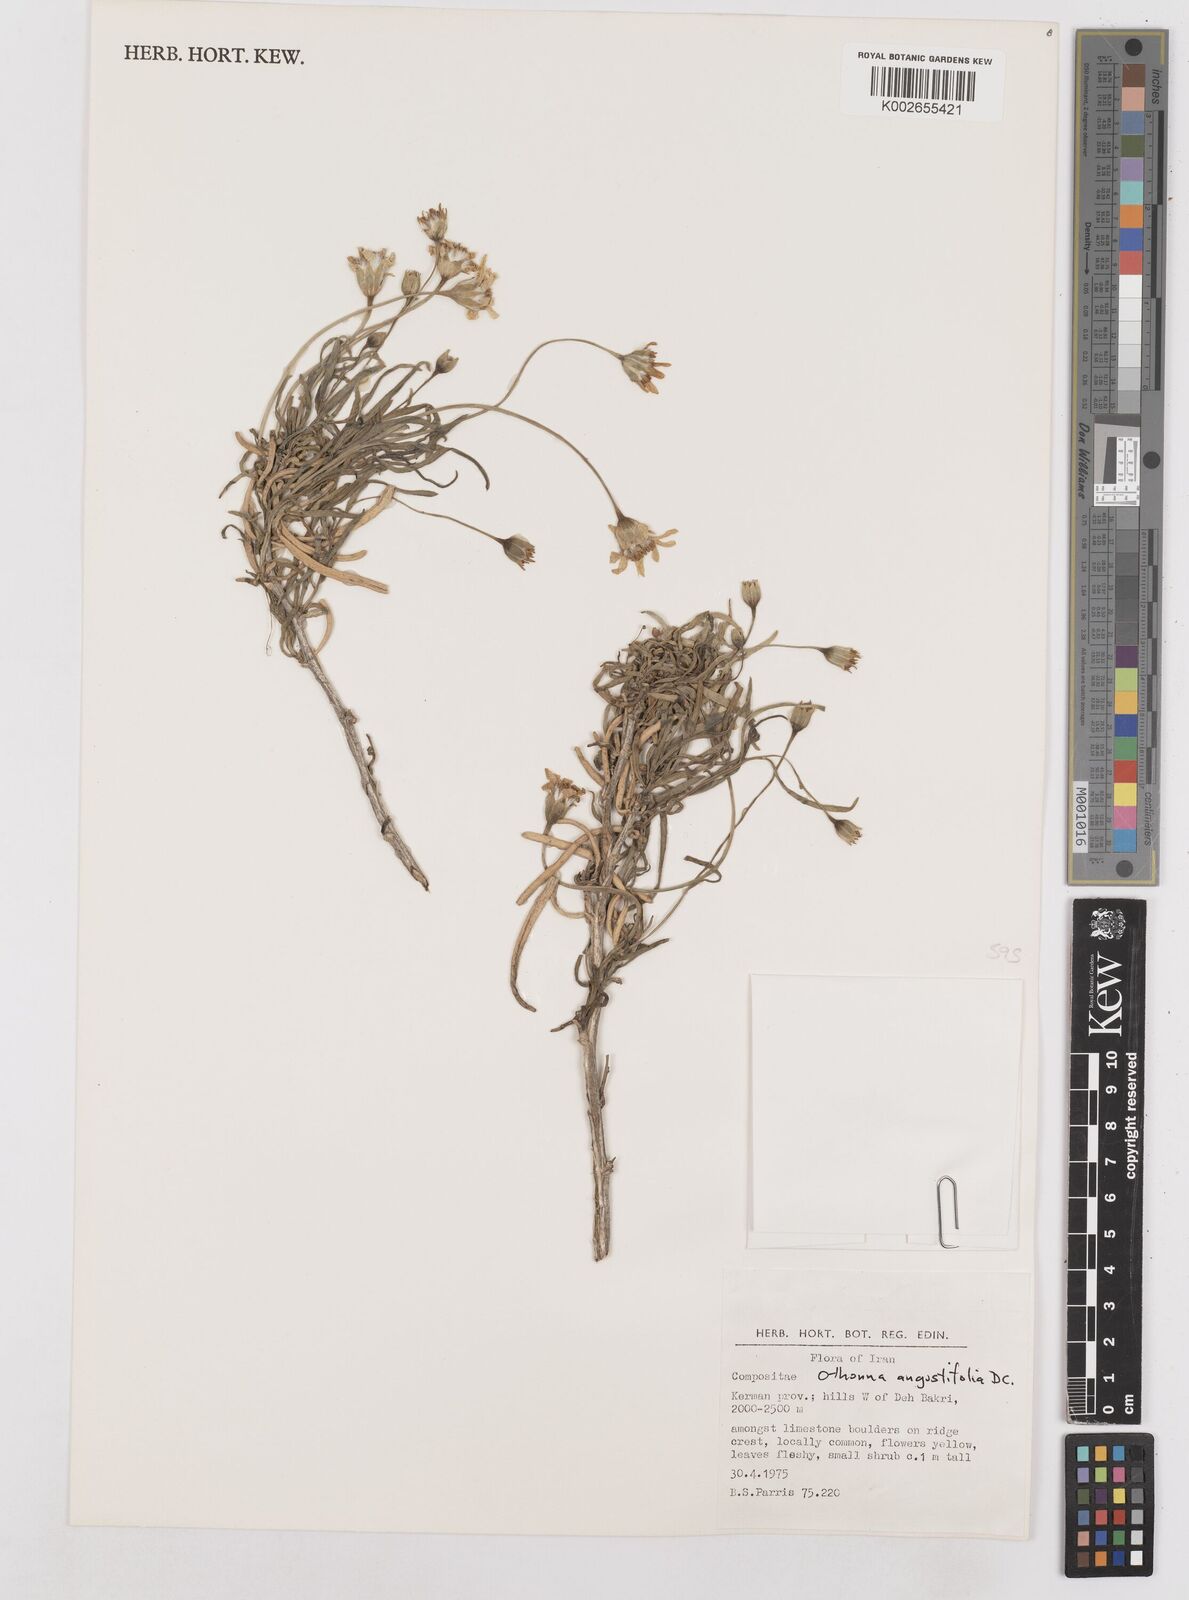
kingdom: Plantae
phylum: Tracheophyta
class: Magnoliopsida
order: Asterales
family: Asteraceae
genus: Hertia
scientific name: Hertia angustifolia
